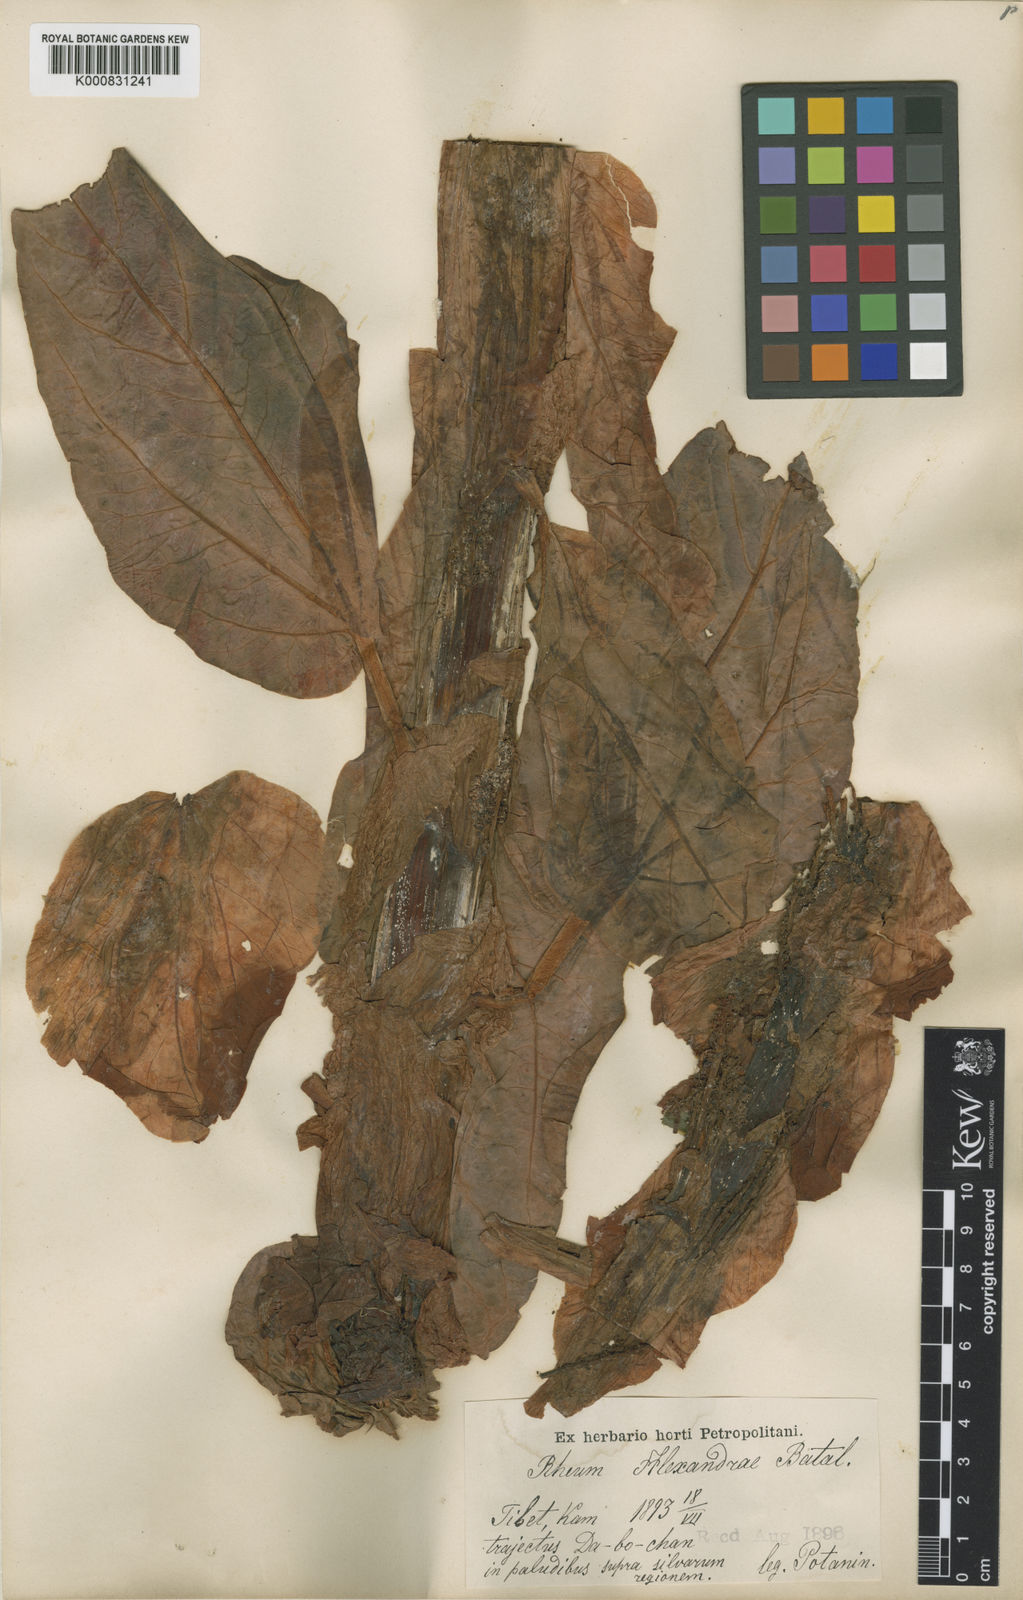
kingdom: Plantae
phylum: Tracheophyta
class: Magnoliopsida
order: Caryophyllales
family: Polygonaceae
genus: Rheum
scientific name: Rheum alexandrae
